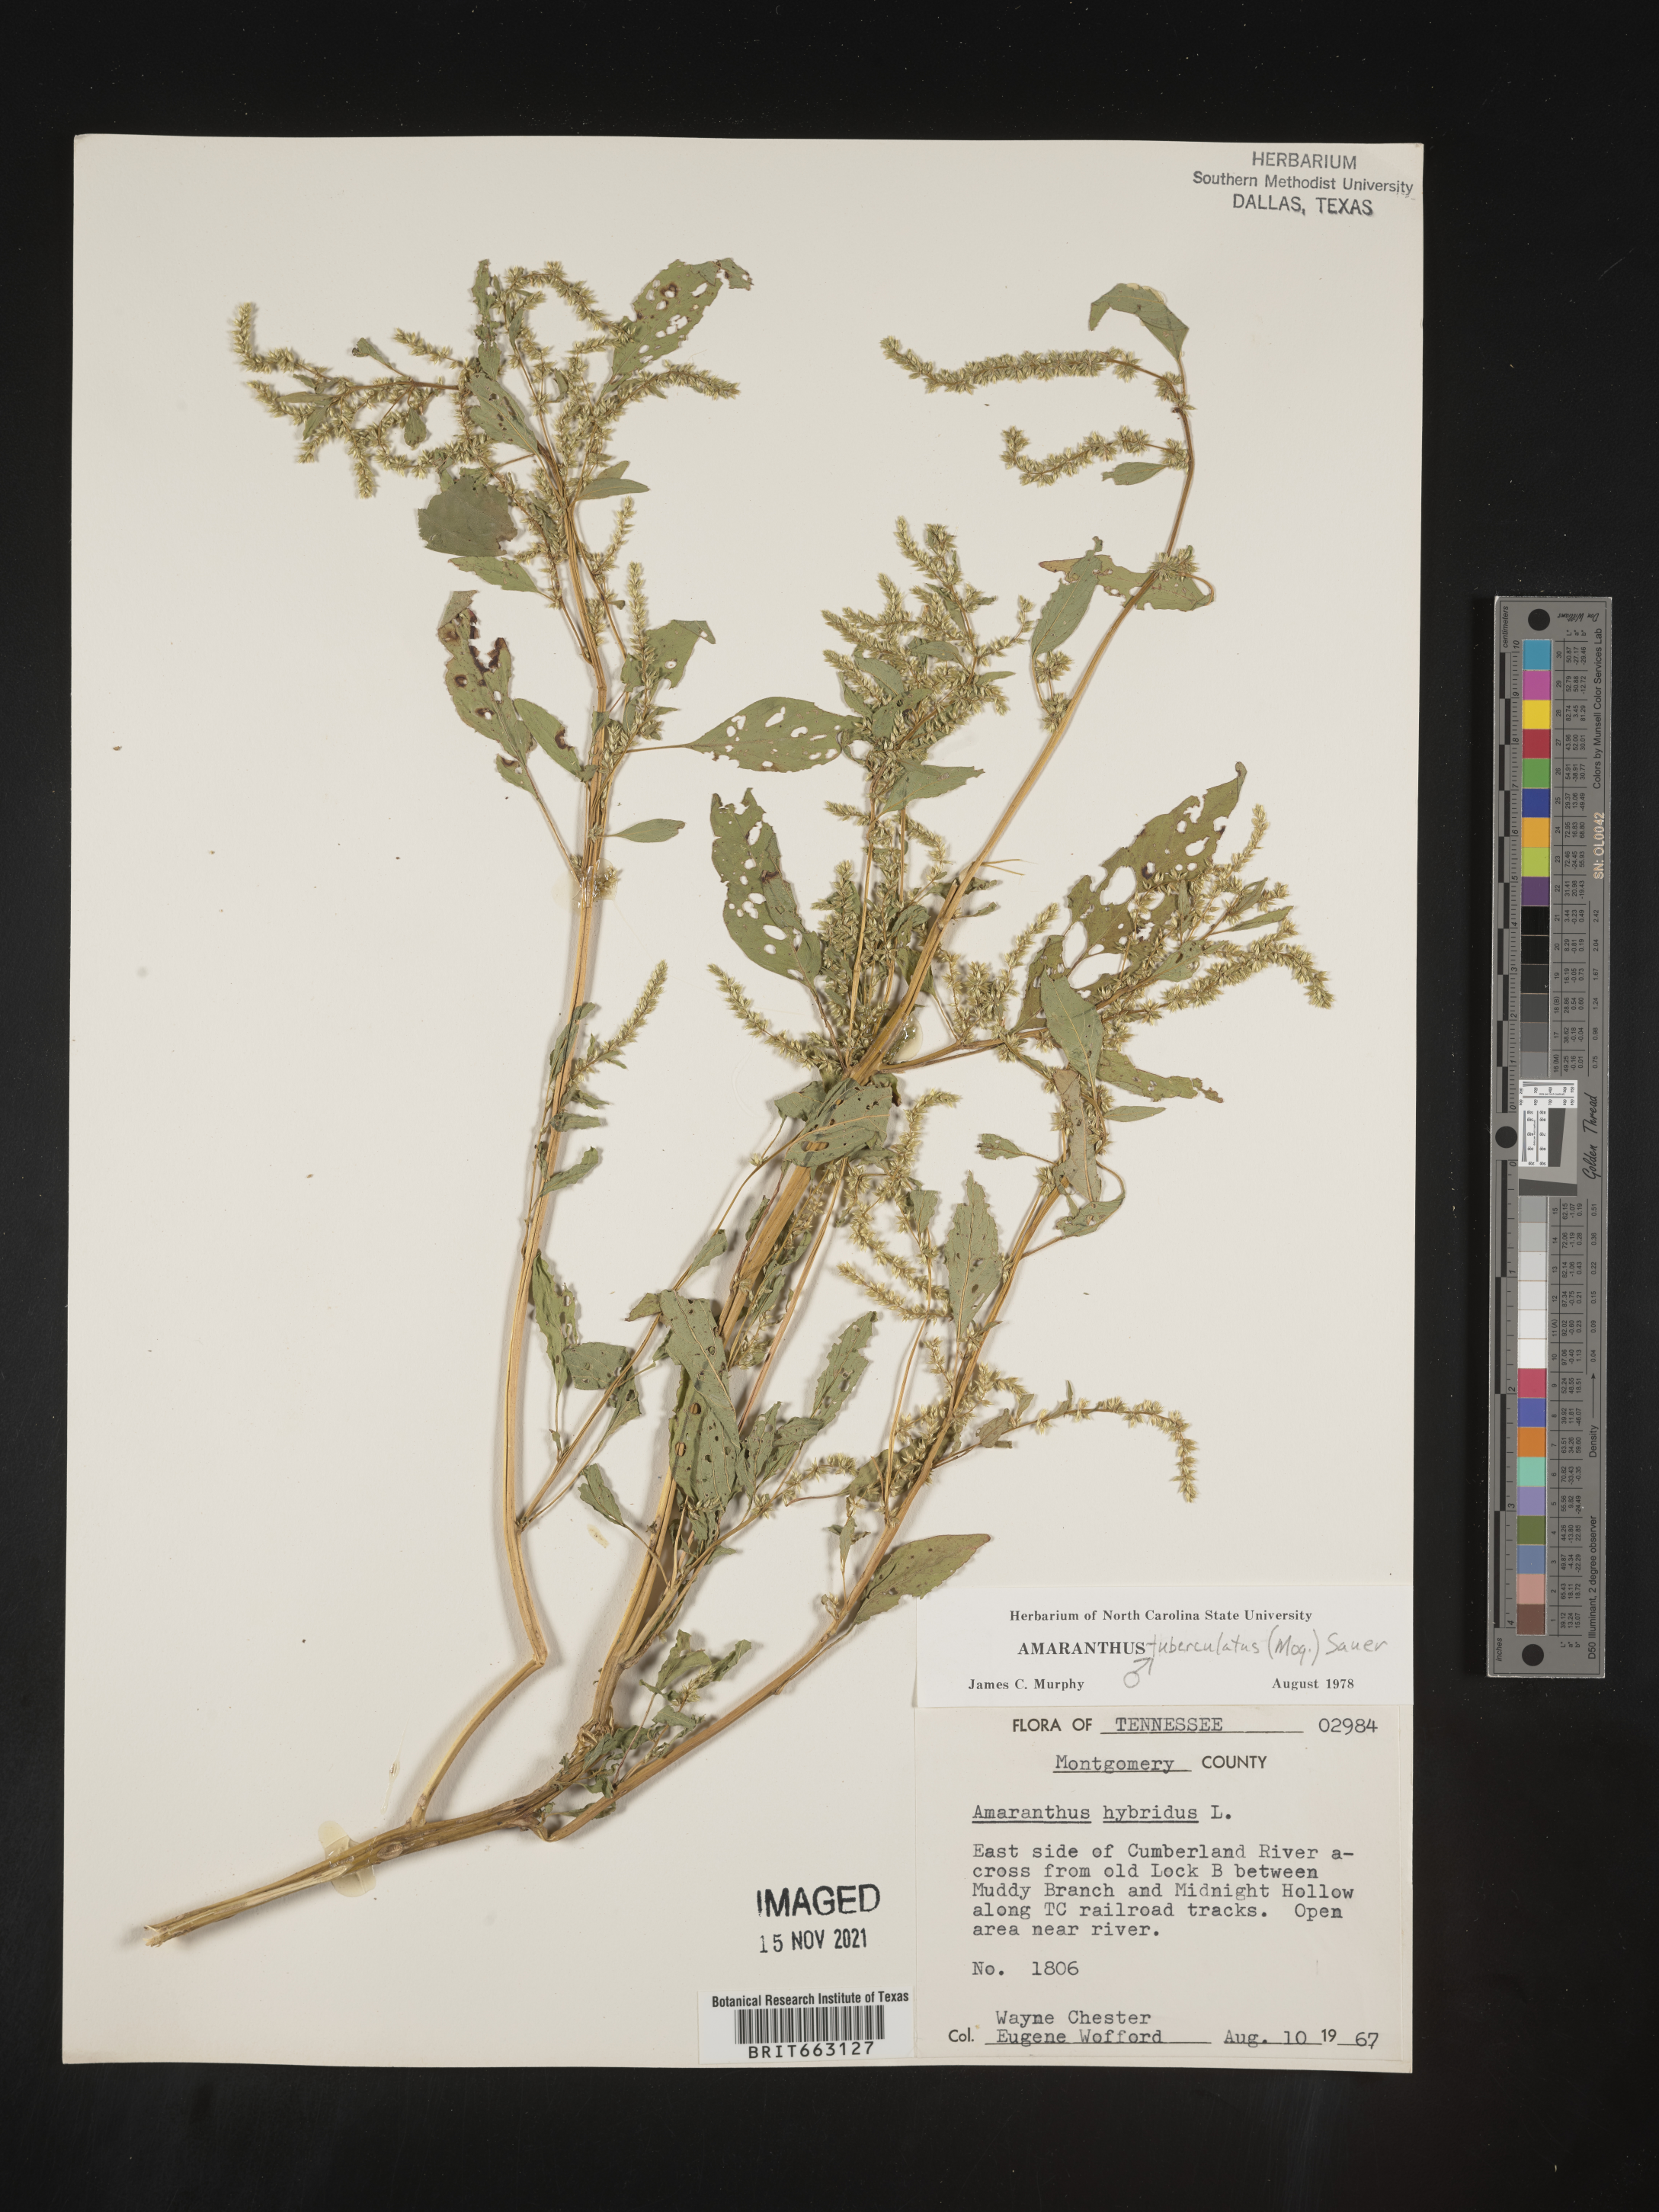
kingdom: Plantae
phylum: Tracheophyta
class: Magnoliopsida
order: Caryophyllales
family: Amaranthaceae
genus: Amaranthus
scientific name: Amaranthus tuberculatus
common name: Rough-fruit amaranth
